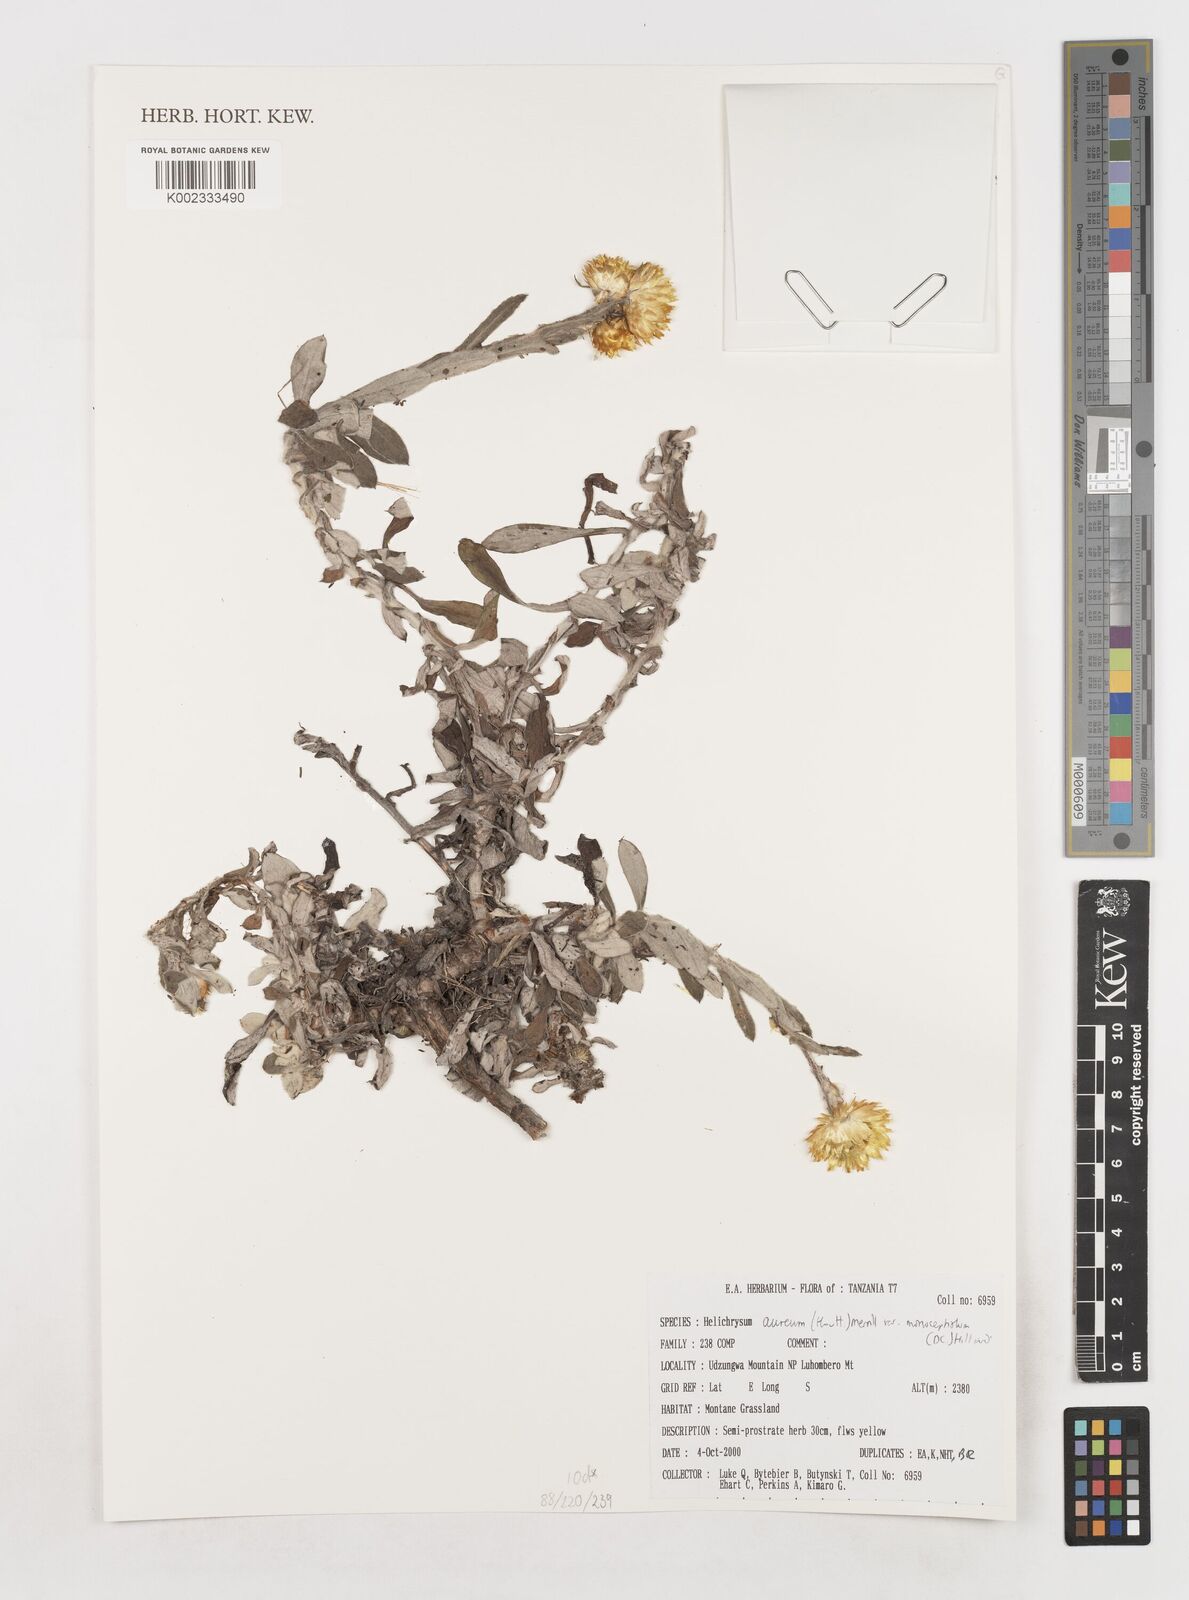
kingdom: Plantae
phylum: Tracheophyta
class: Magnoliopsida
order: Asterales
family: Asteraceae
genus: Helichrysum
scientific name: Helichrysum aureum
